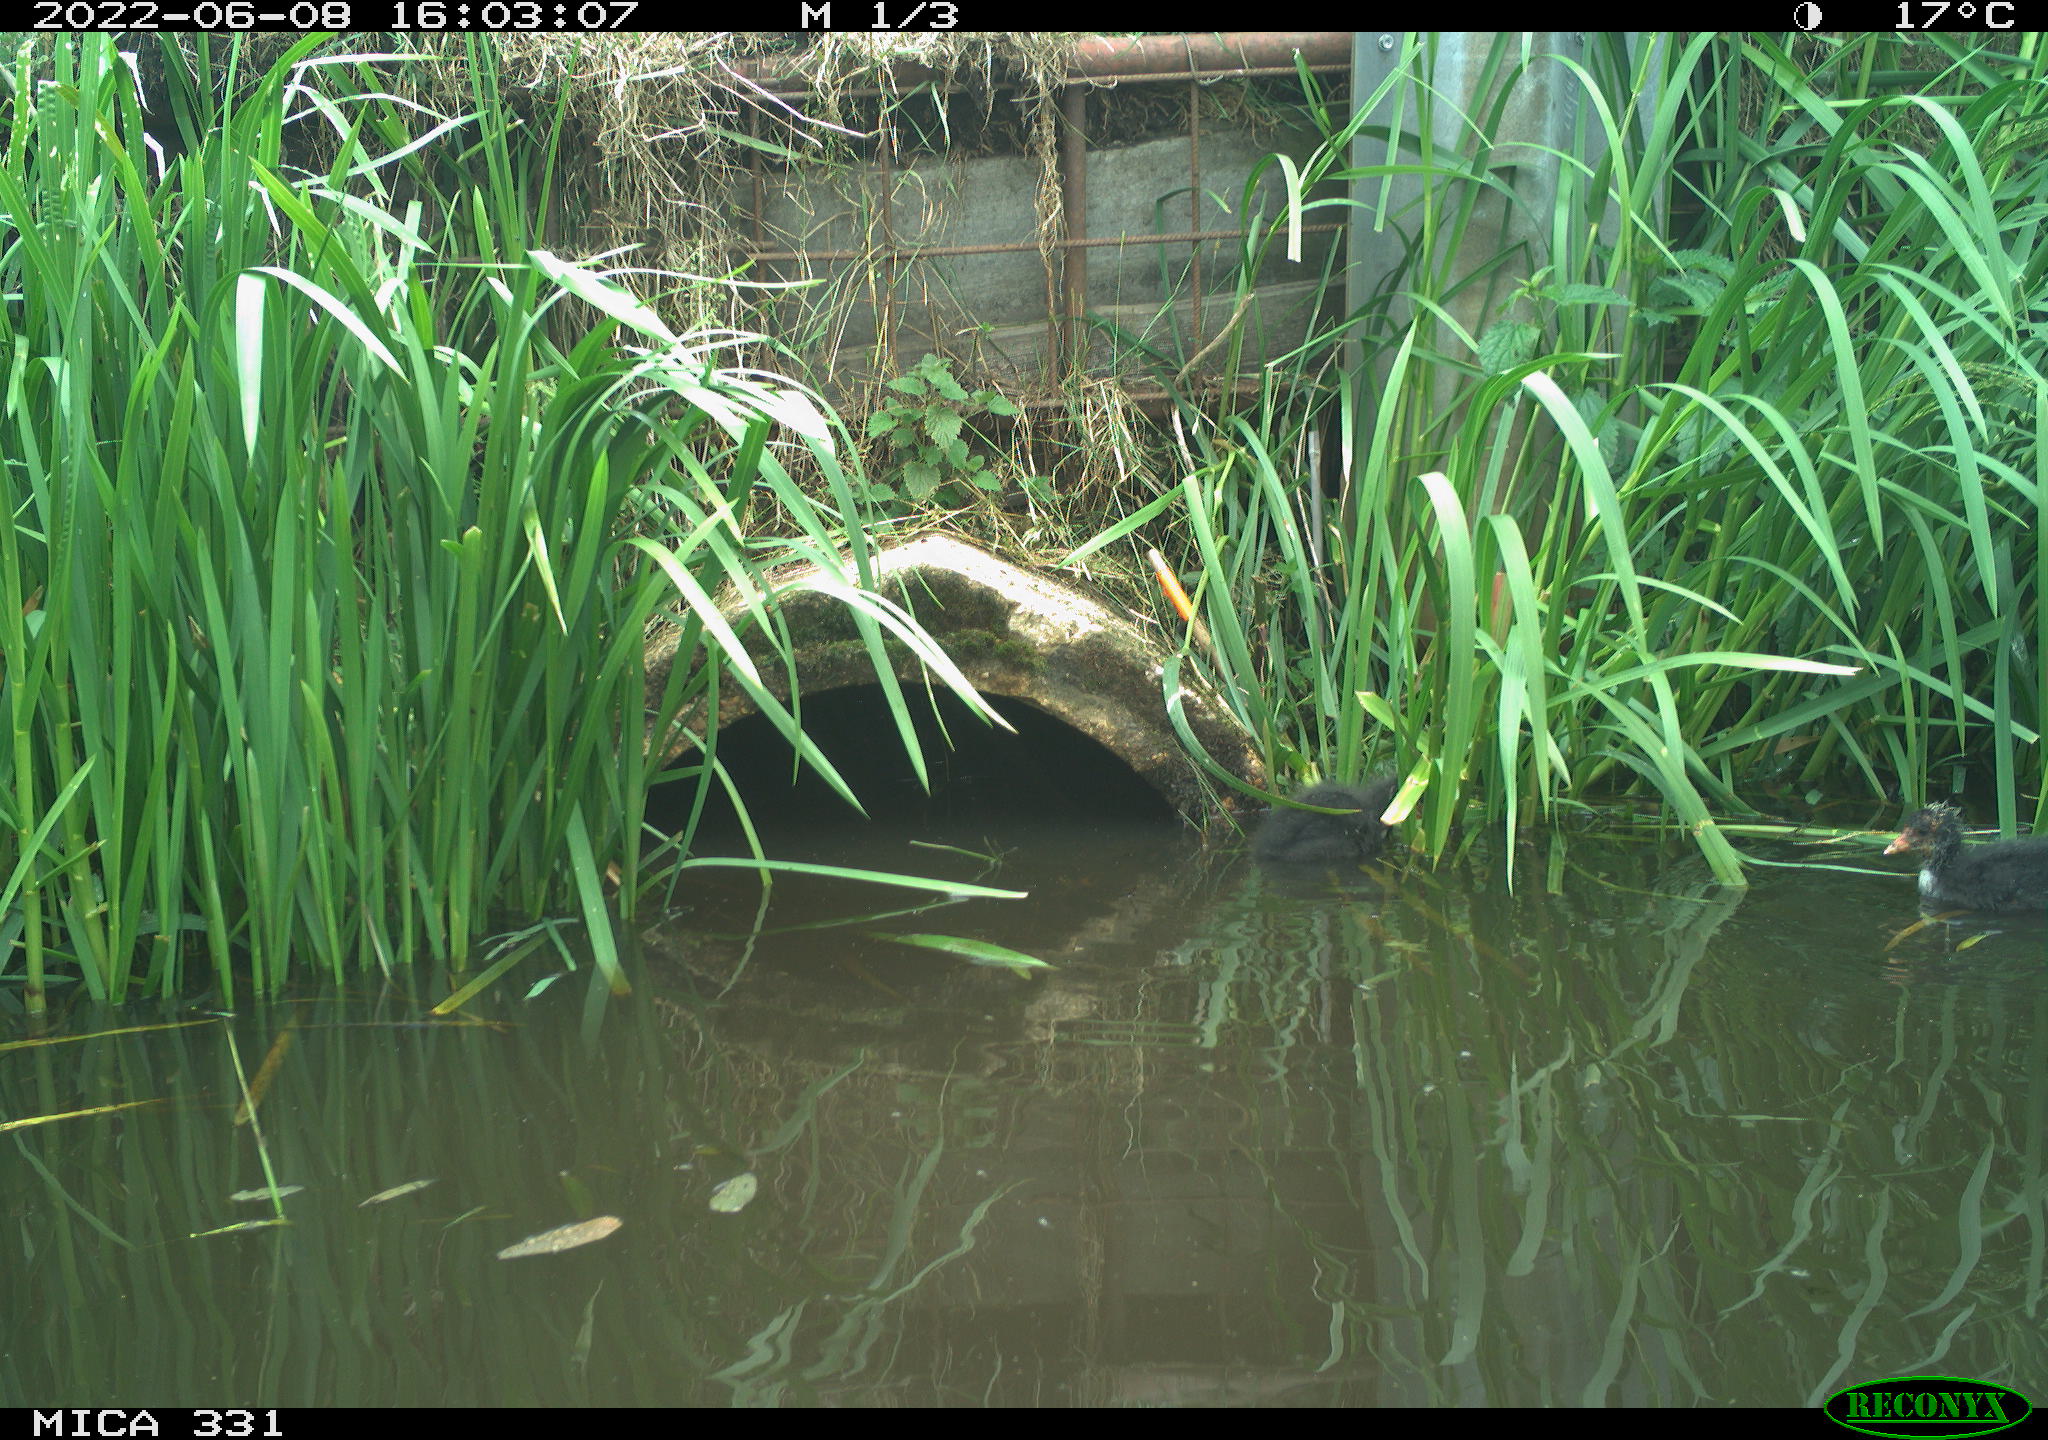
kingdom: Animalia
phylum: Chordata
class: Aves
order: Gruiformes
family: Rallidae
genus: Fulica
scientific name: Fulica atra
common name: Eurasian coot
